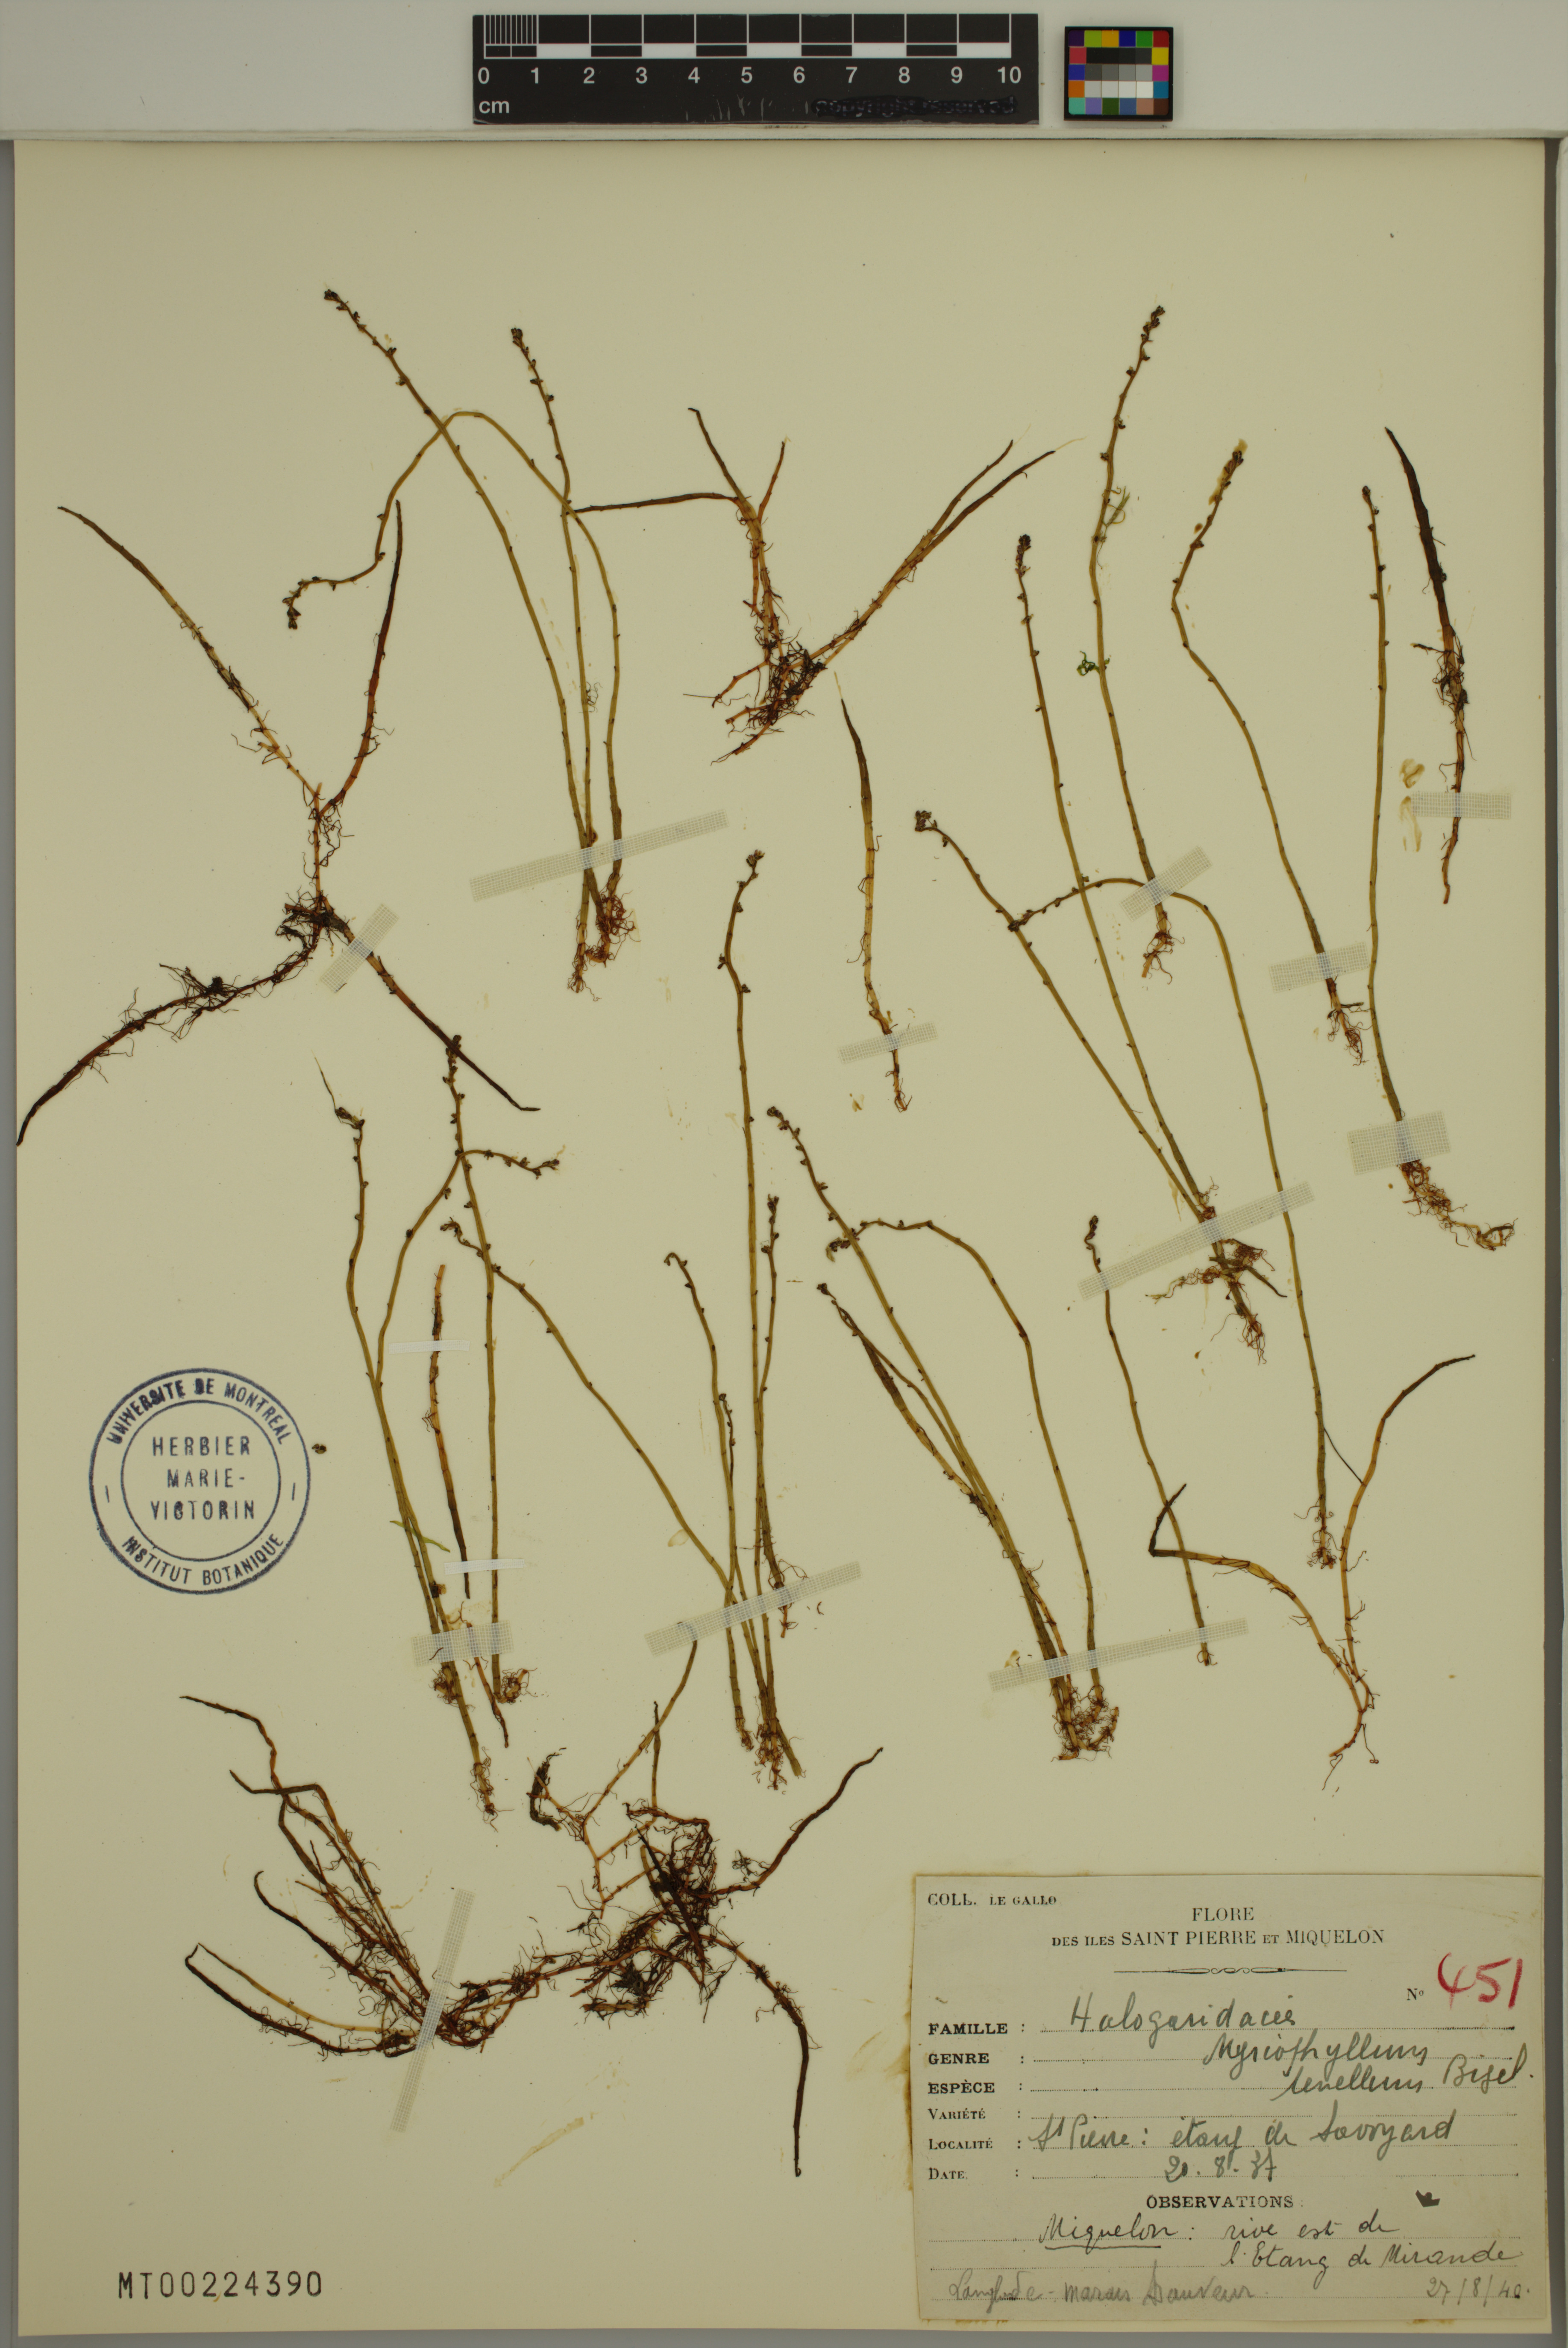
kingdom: Plantae
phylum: Tracheophyta
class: Magnoliopsida
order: Saxifragales
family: Haloragaceae
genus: Myriophyllum
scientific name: Myriophyllum tenellum
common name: Slender water-milfoil
